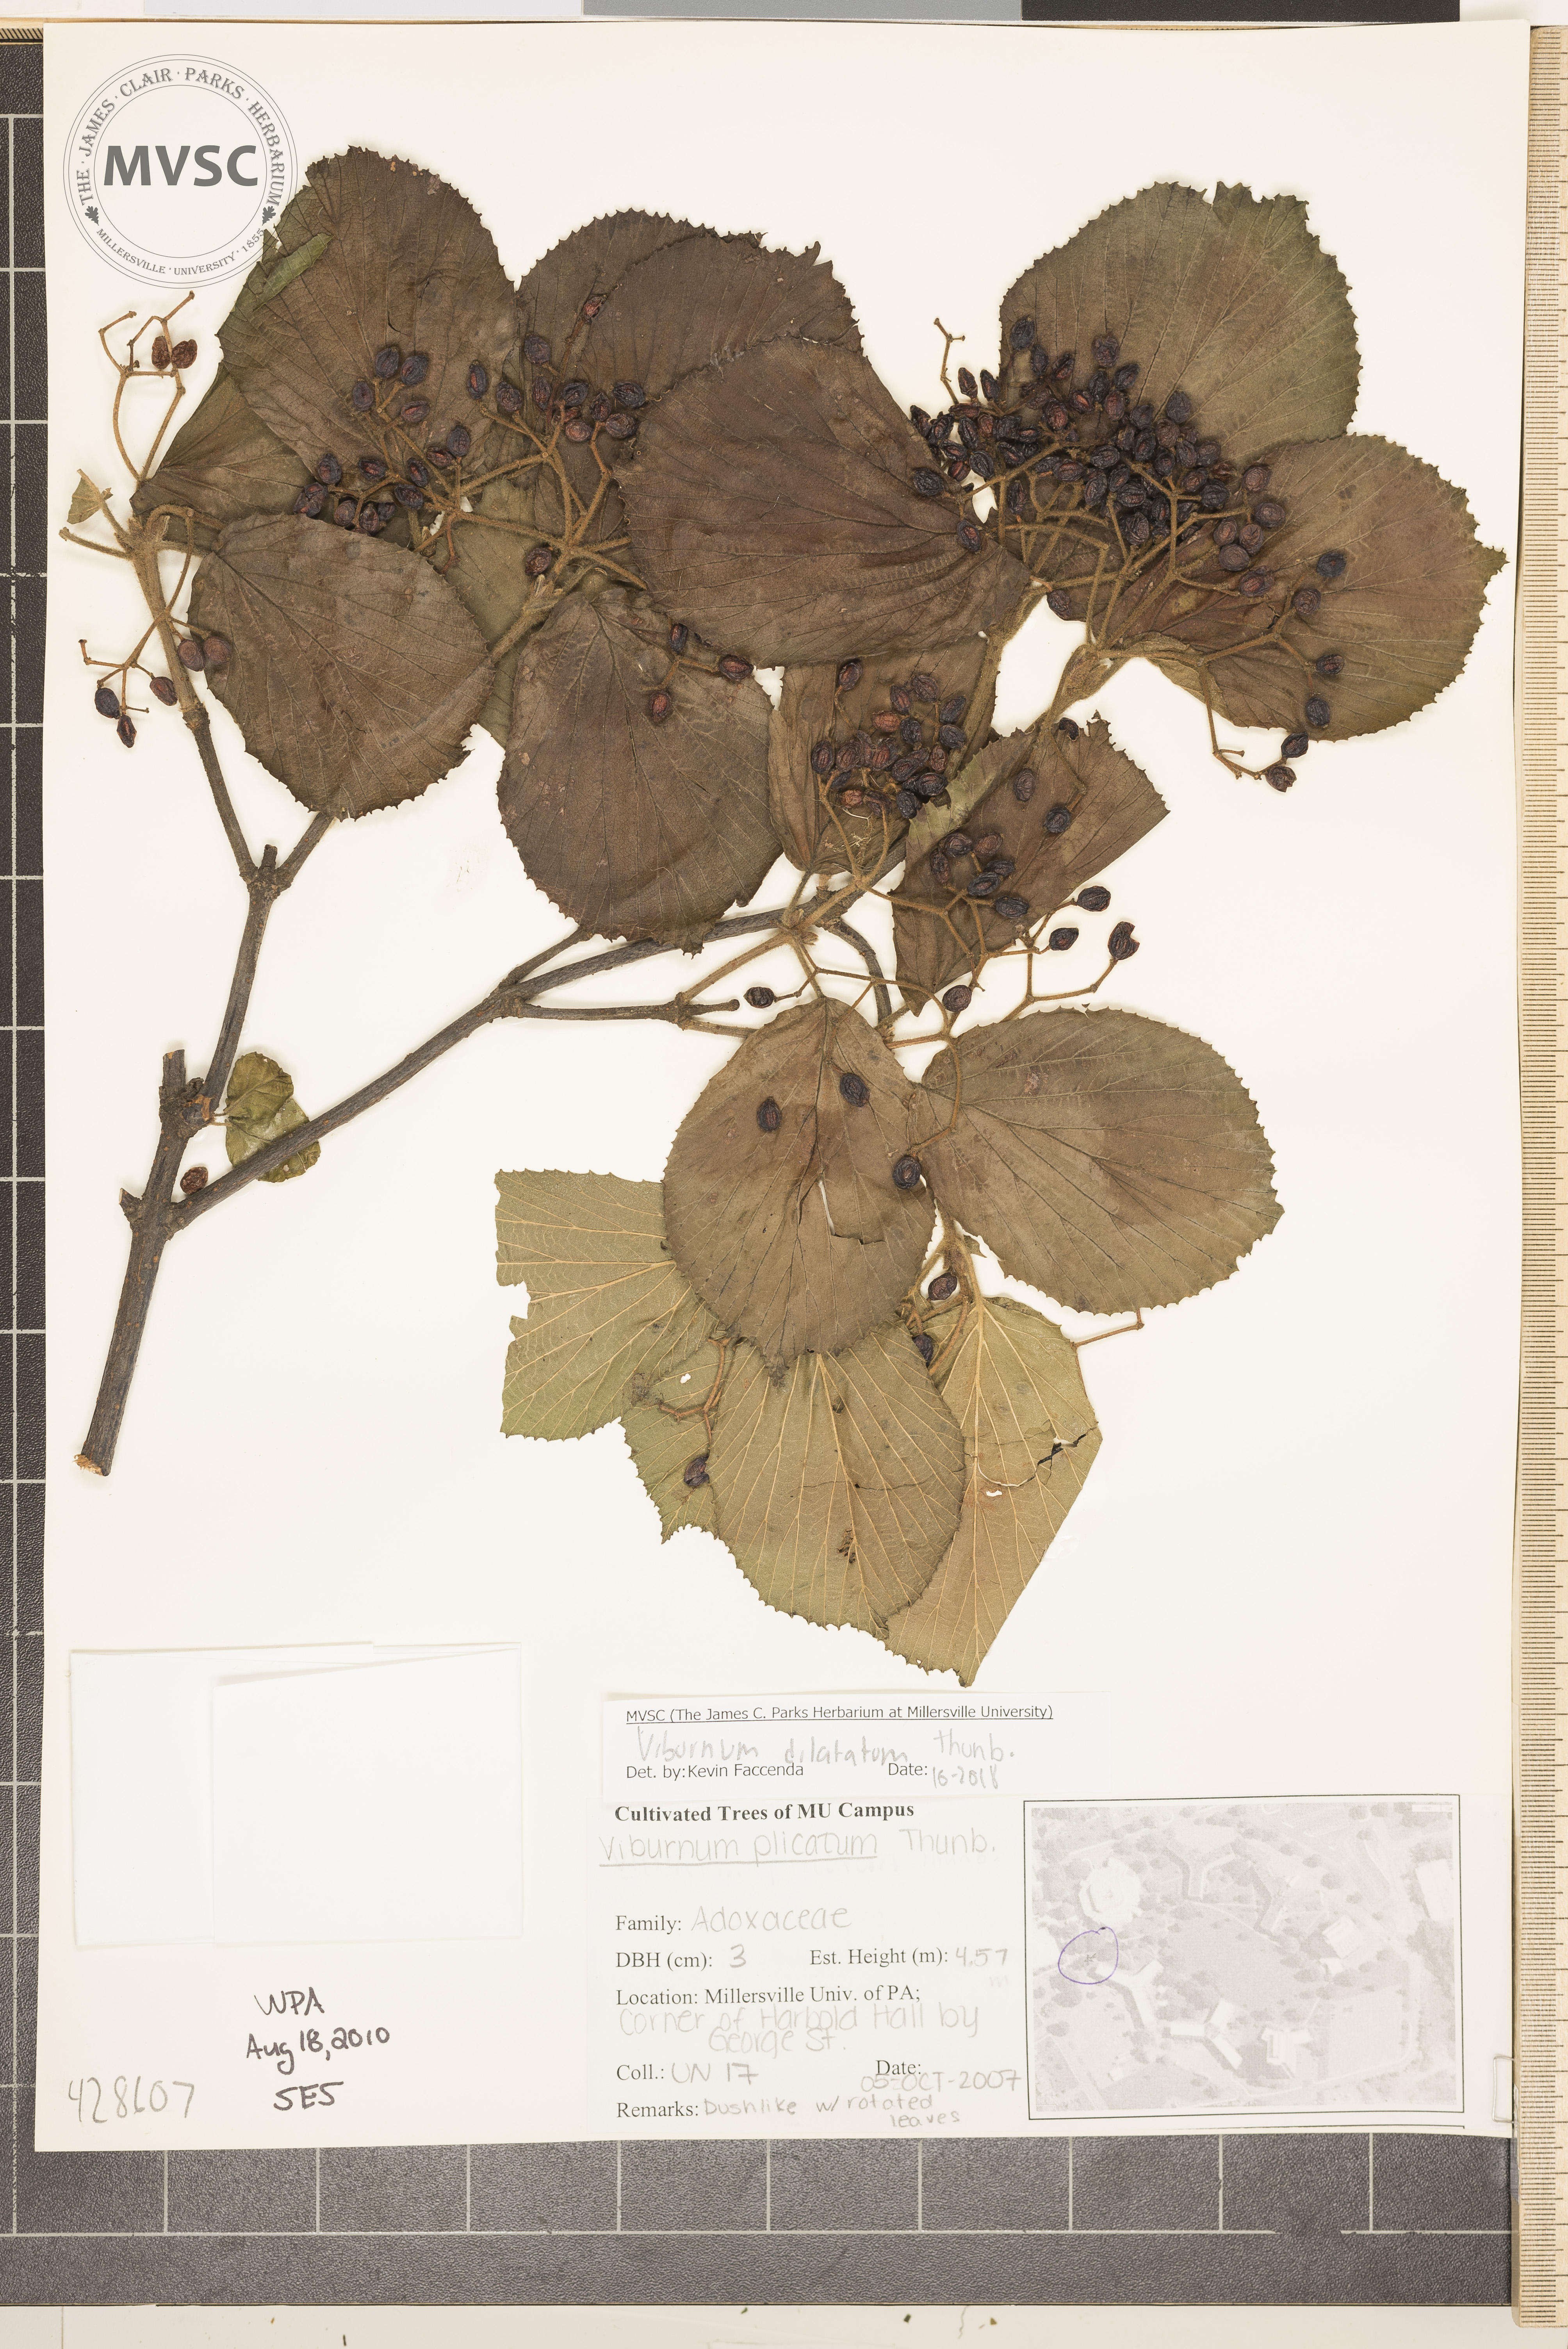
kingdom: Plantae
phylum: Tracheophyta
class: Magnoliopsida
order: Dipsacales
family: Viburnaceae
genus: Viburnum
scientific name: Viburnum dilatatum
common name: Linden arrowwood
